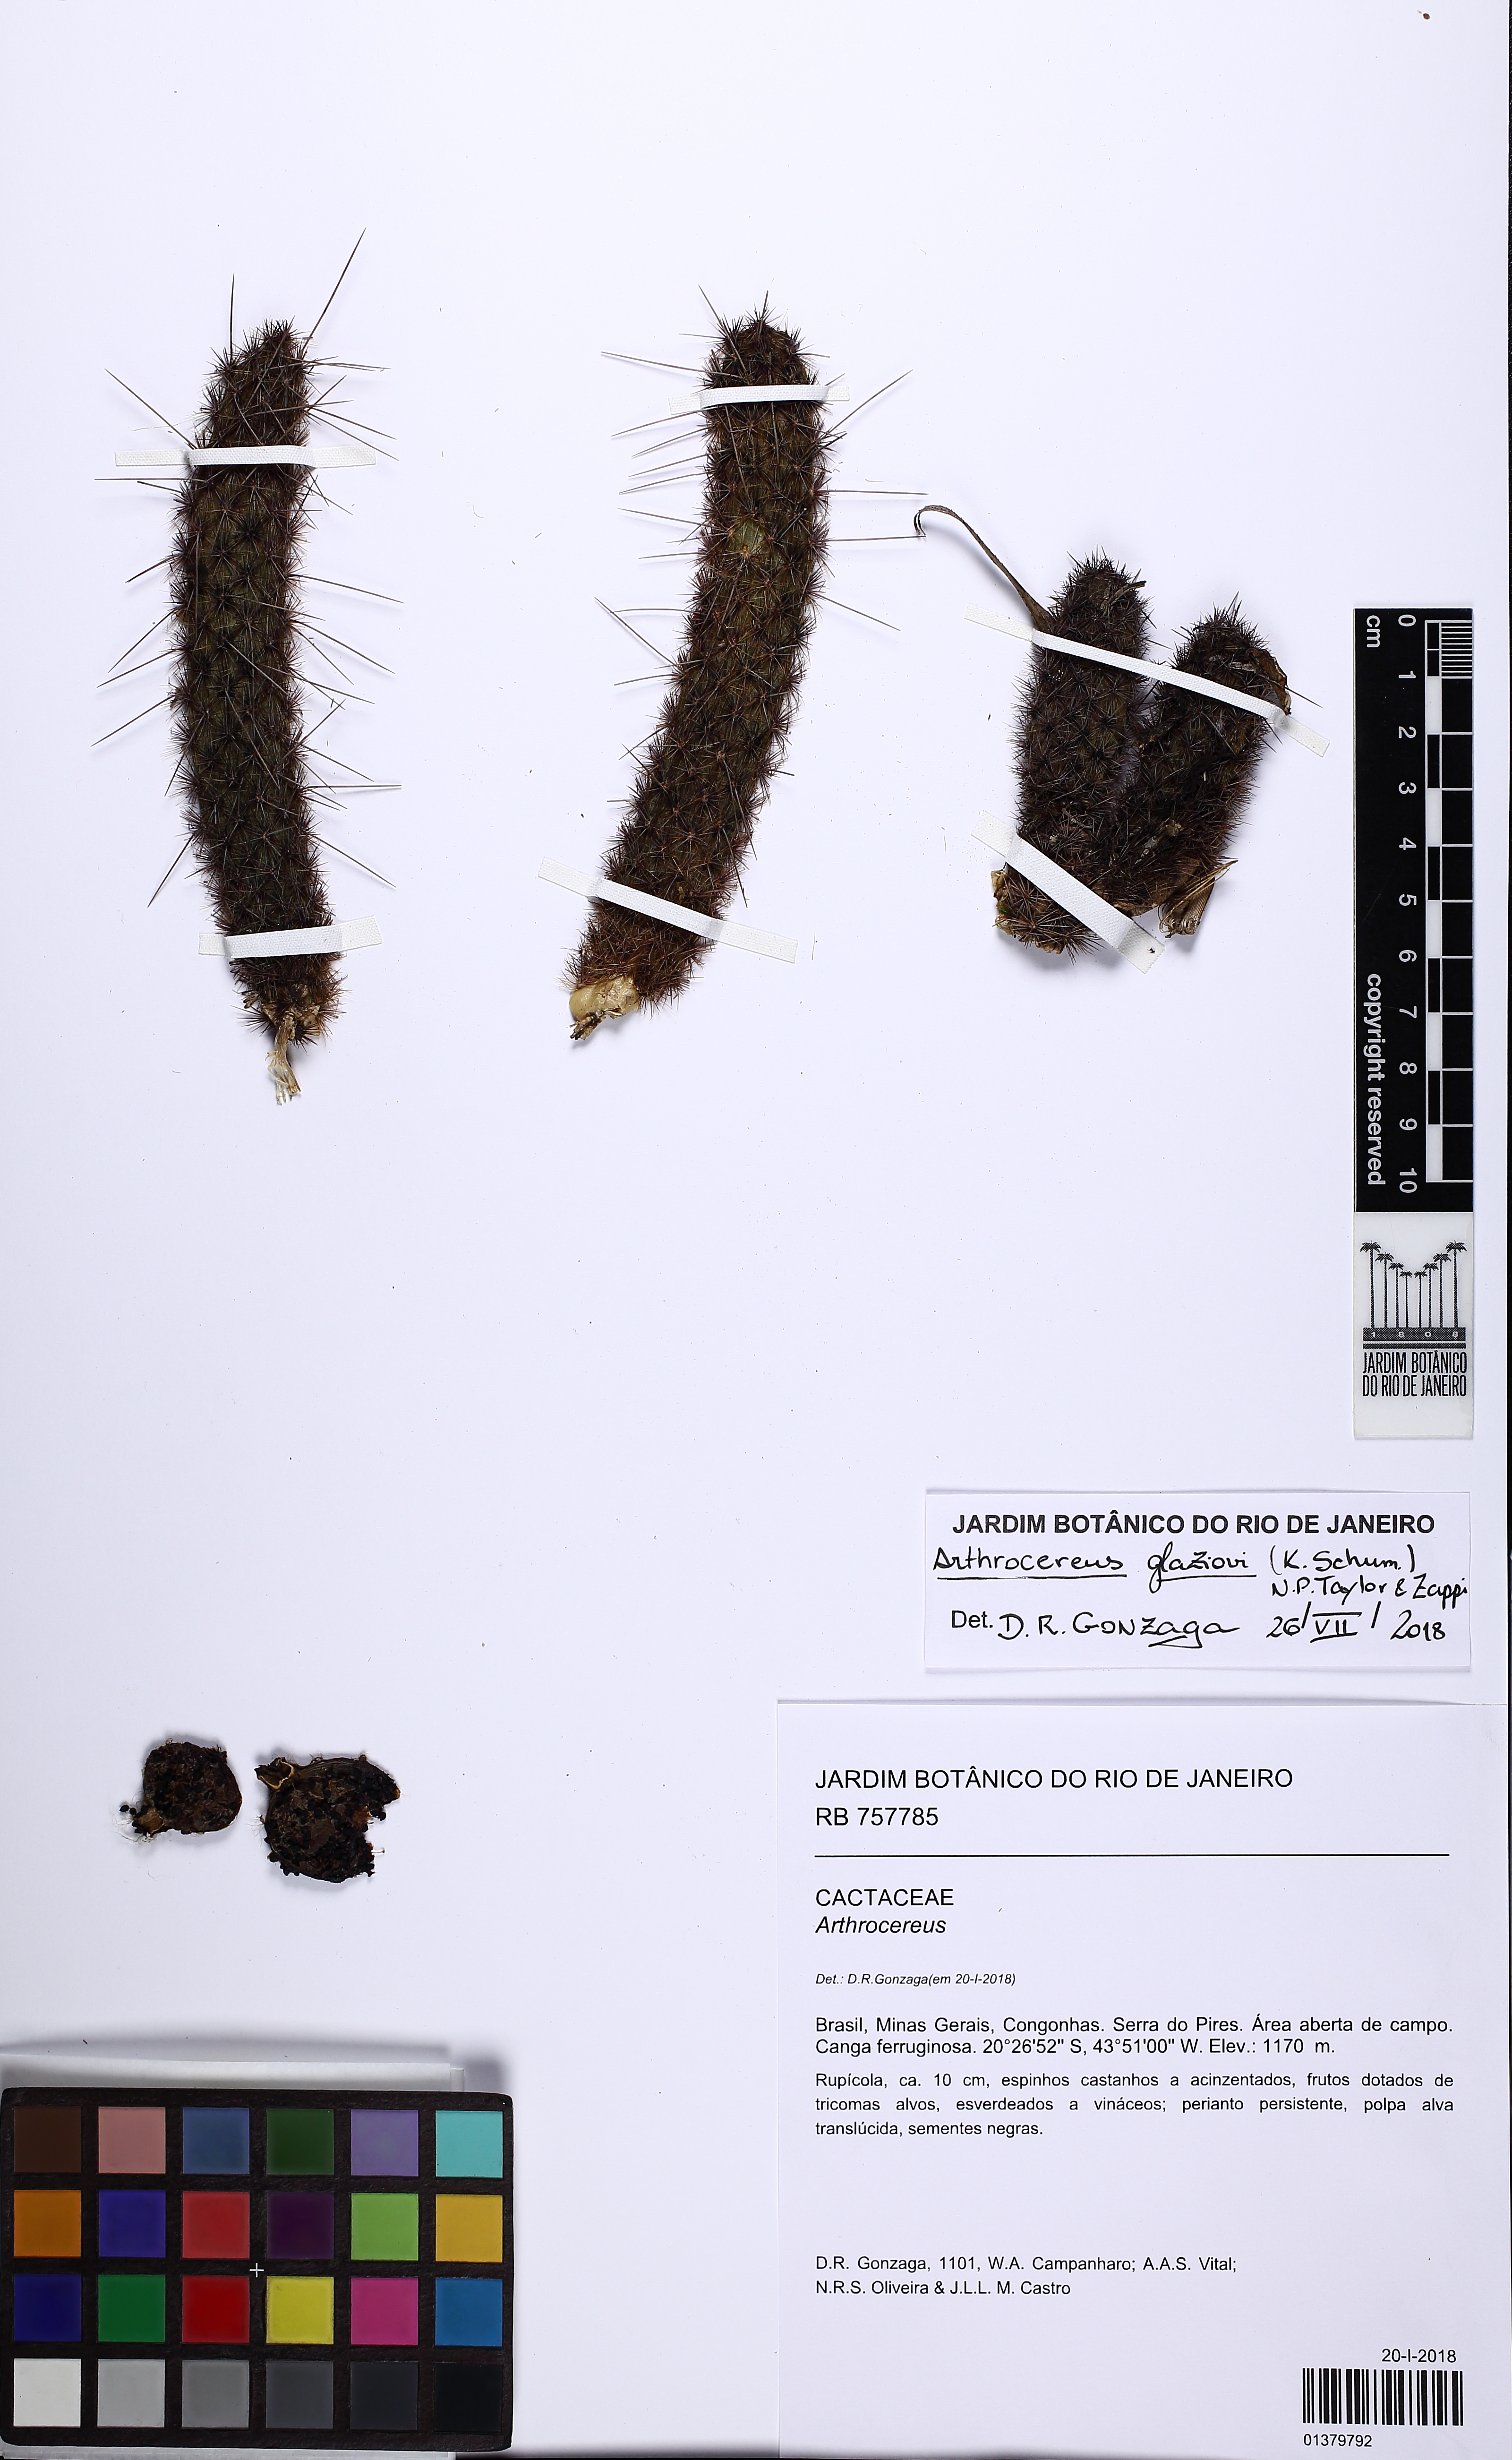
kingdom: Plantae
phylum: Tracheophyta
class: Magnoliopsida
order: Caryophyllales
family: Cactaceae
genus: Arthrocereus
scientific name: Arthrocereus glaziovii
